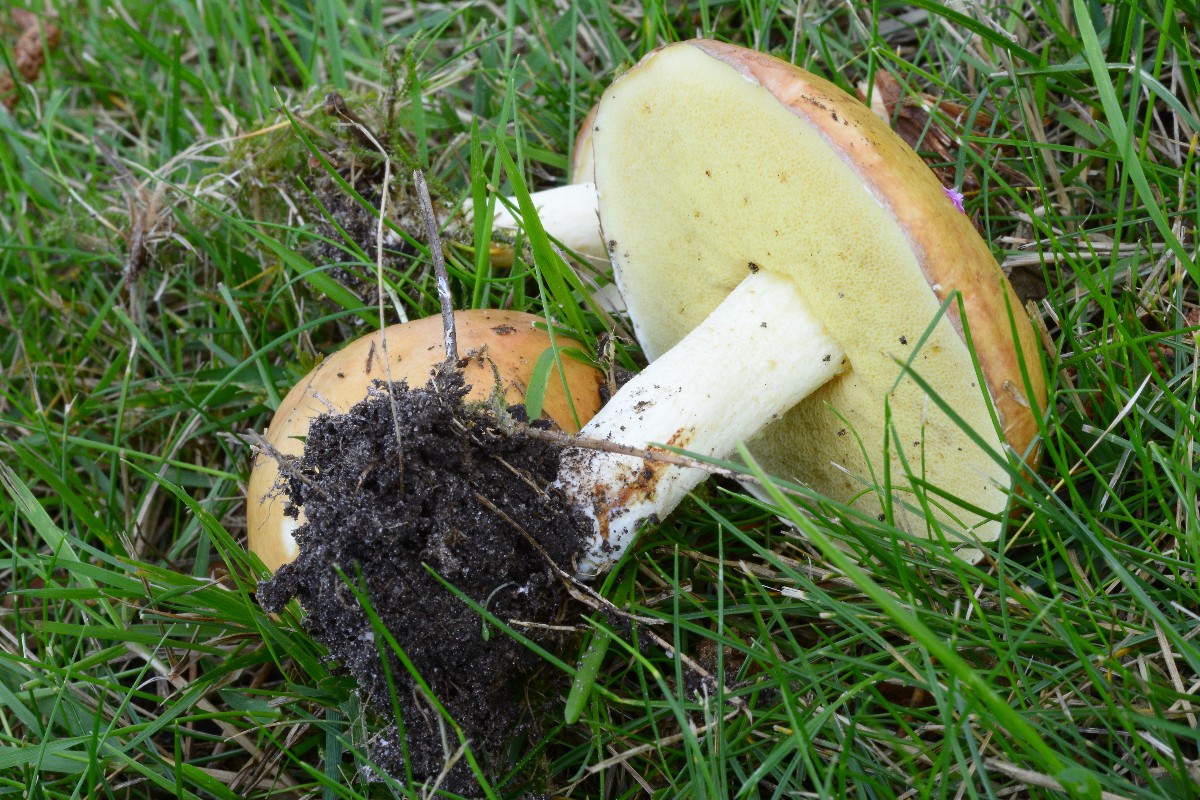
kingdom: Fungi
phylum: Basidiomycota
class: Agaricomycetes
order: Boletales
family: Suillaceae
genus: Suillus
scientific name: Suillus granulatus
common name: kornet slimrørhat
